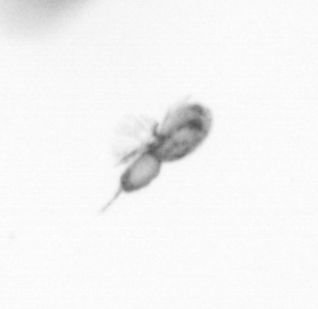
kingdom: Animalia
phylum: Arthropoda
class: Copepoda
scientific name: Copepoda
